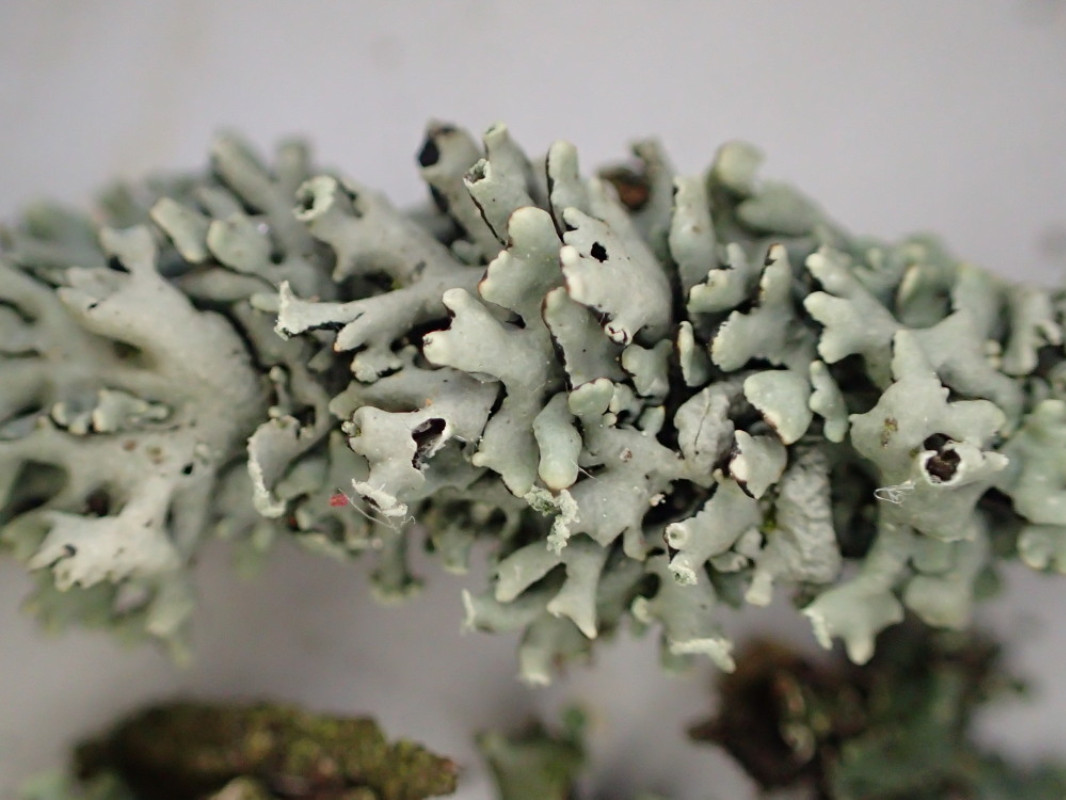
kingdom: Fungi
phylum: Ascomycota
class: Lecanoromycetes
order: Lecanorales
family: Parmeliaceae
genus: Hypogymnia
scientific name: Hypogymnia physodes
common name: almindelig kvistlav
